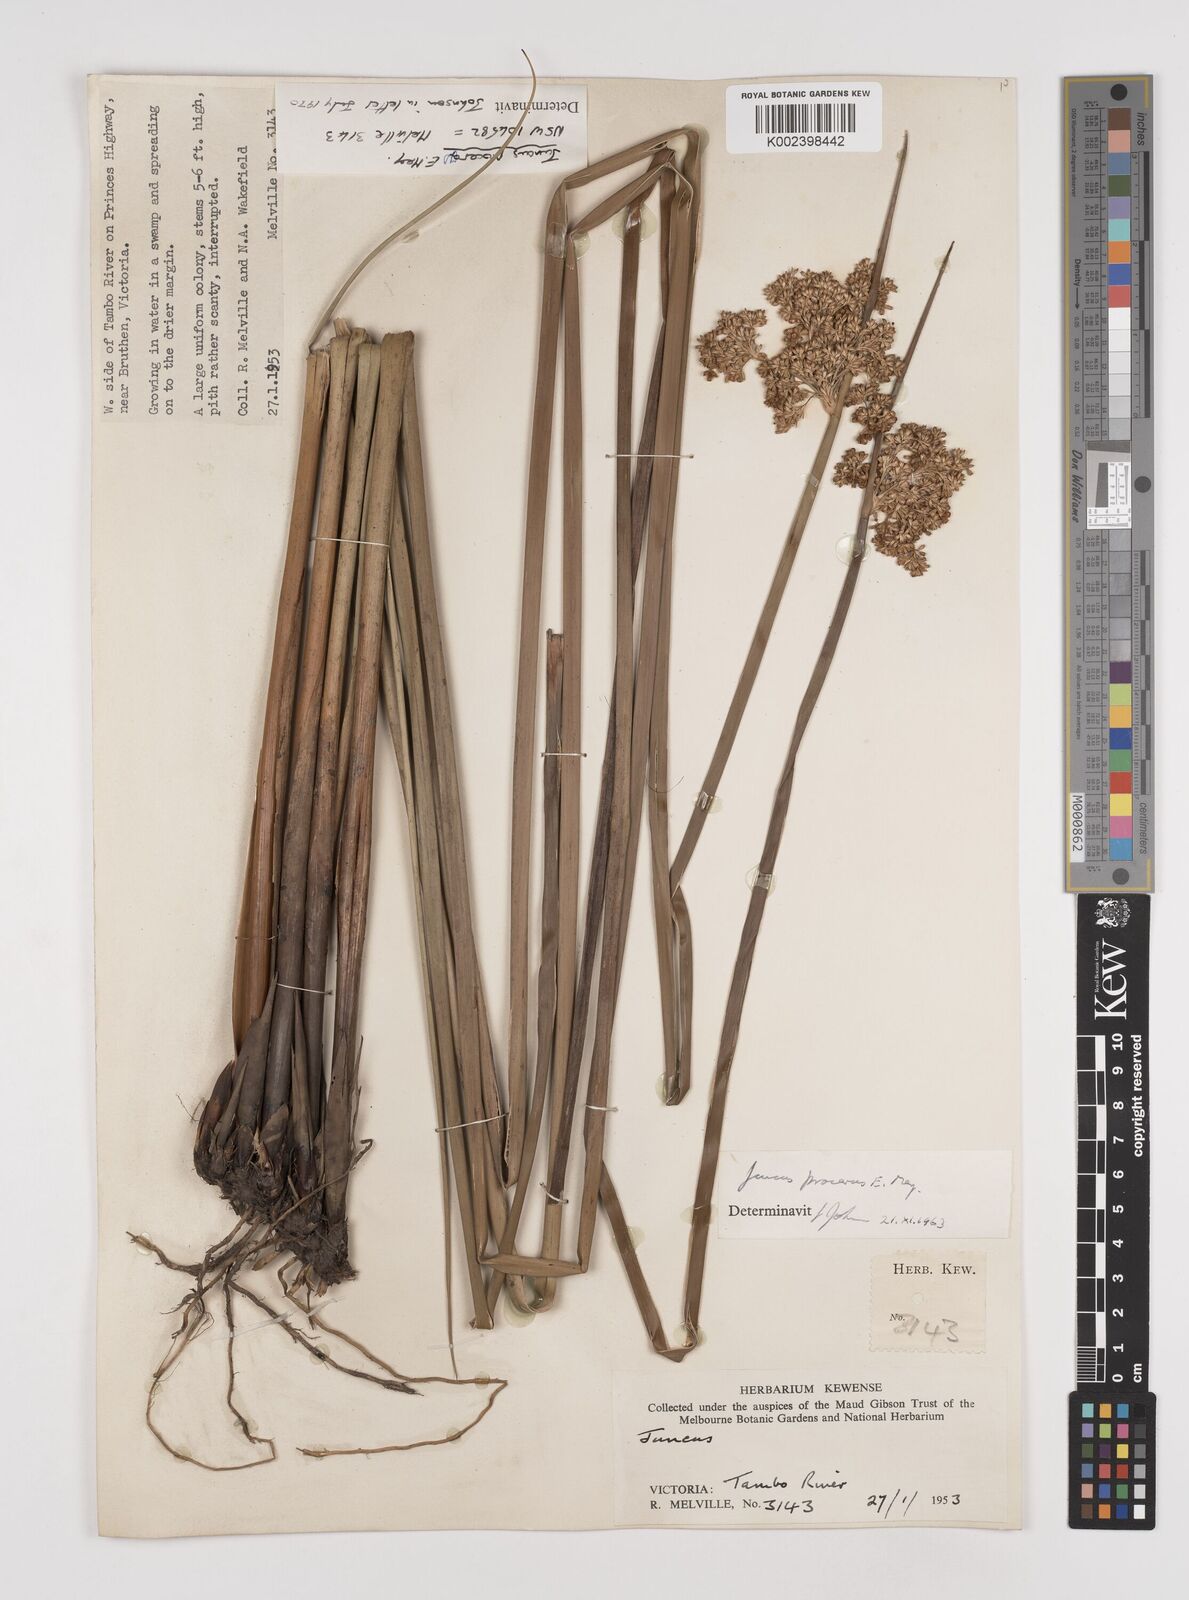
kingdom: Plantae
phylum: Tracheophyta
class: Liliopsida
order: Poales
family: Juncaceae
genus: Juncus
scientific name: Juncus procerus
